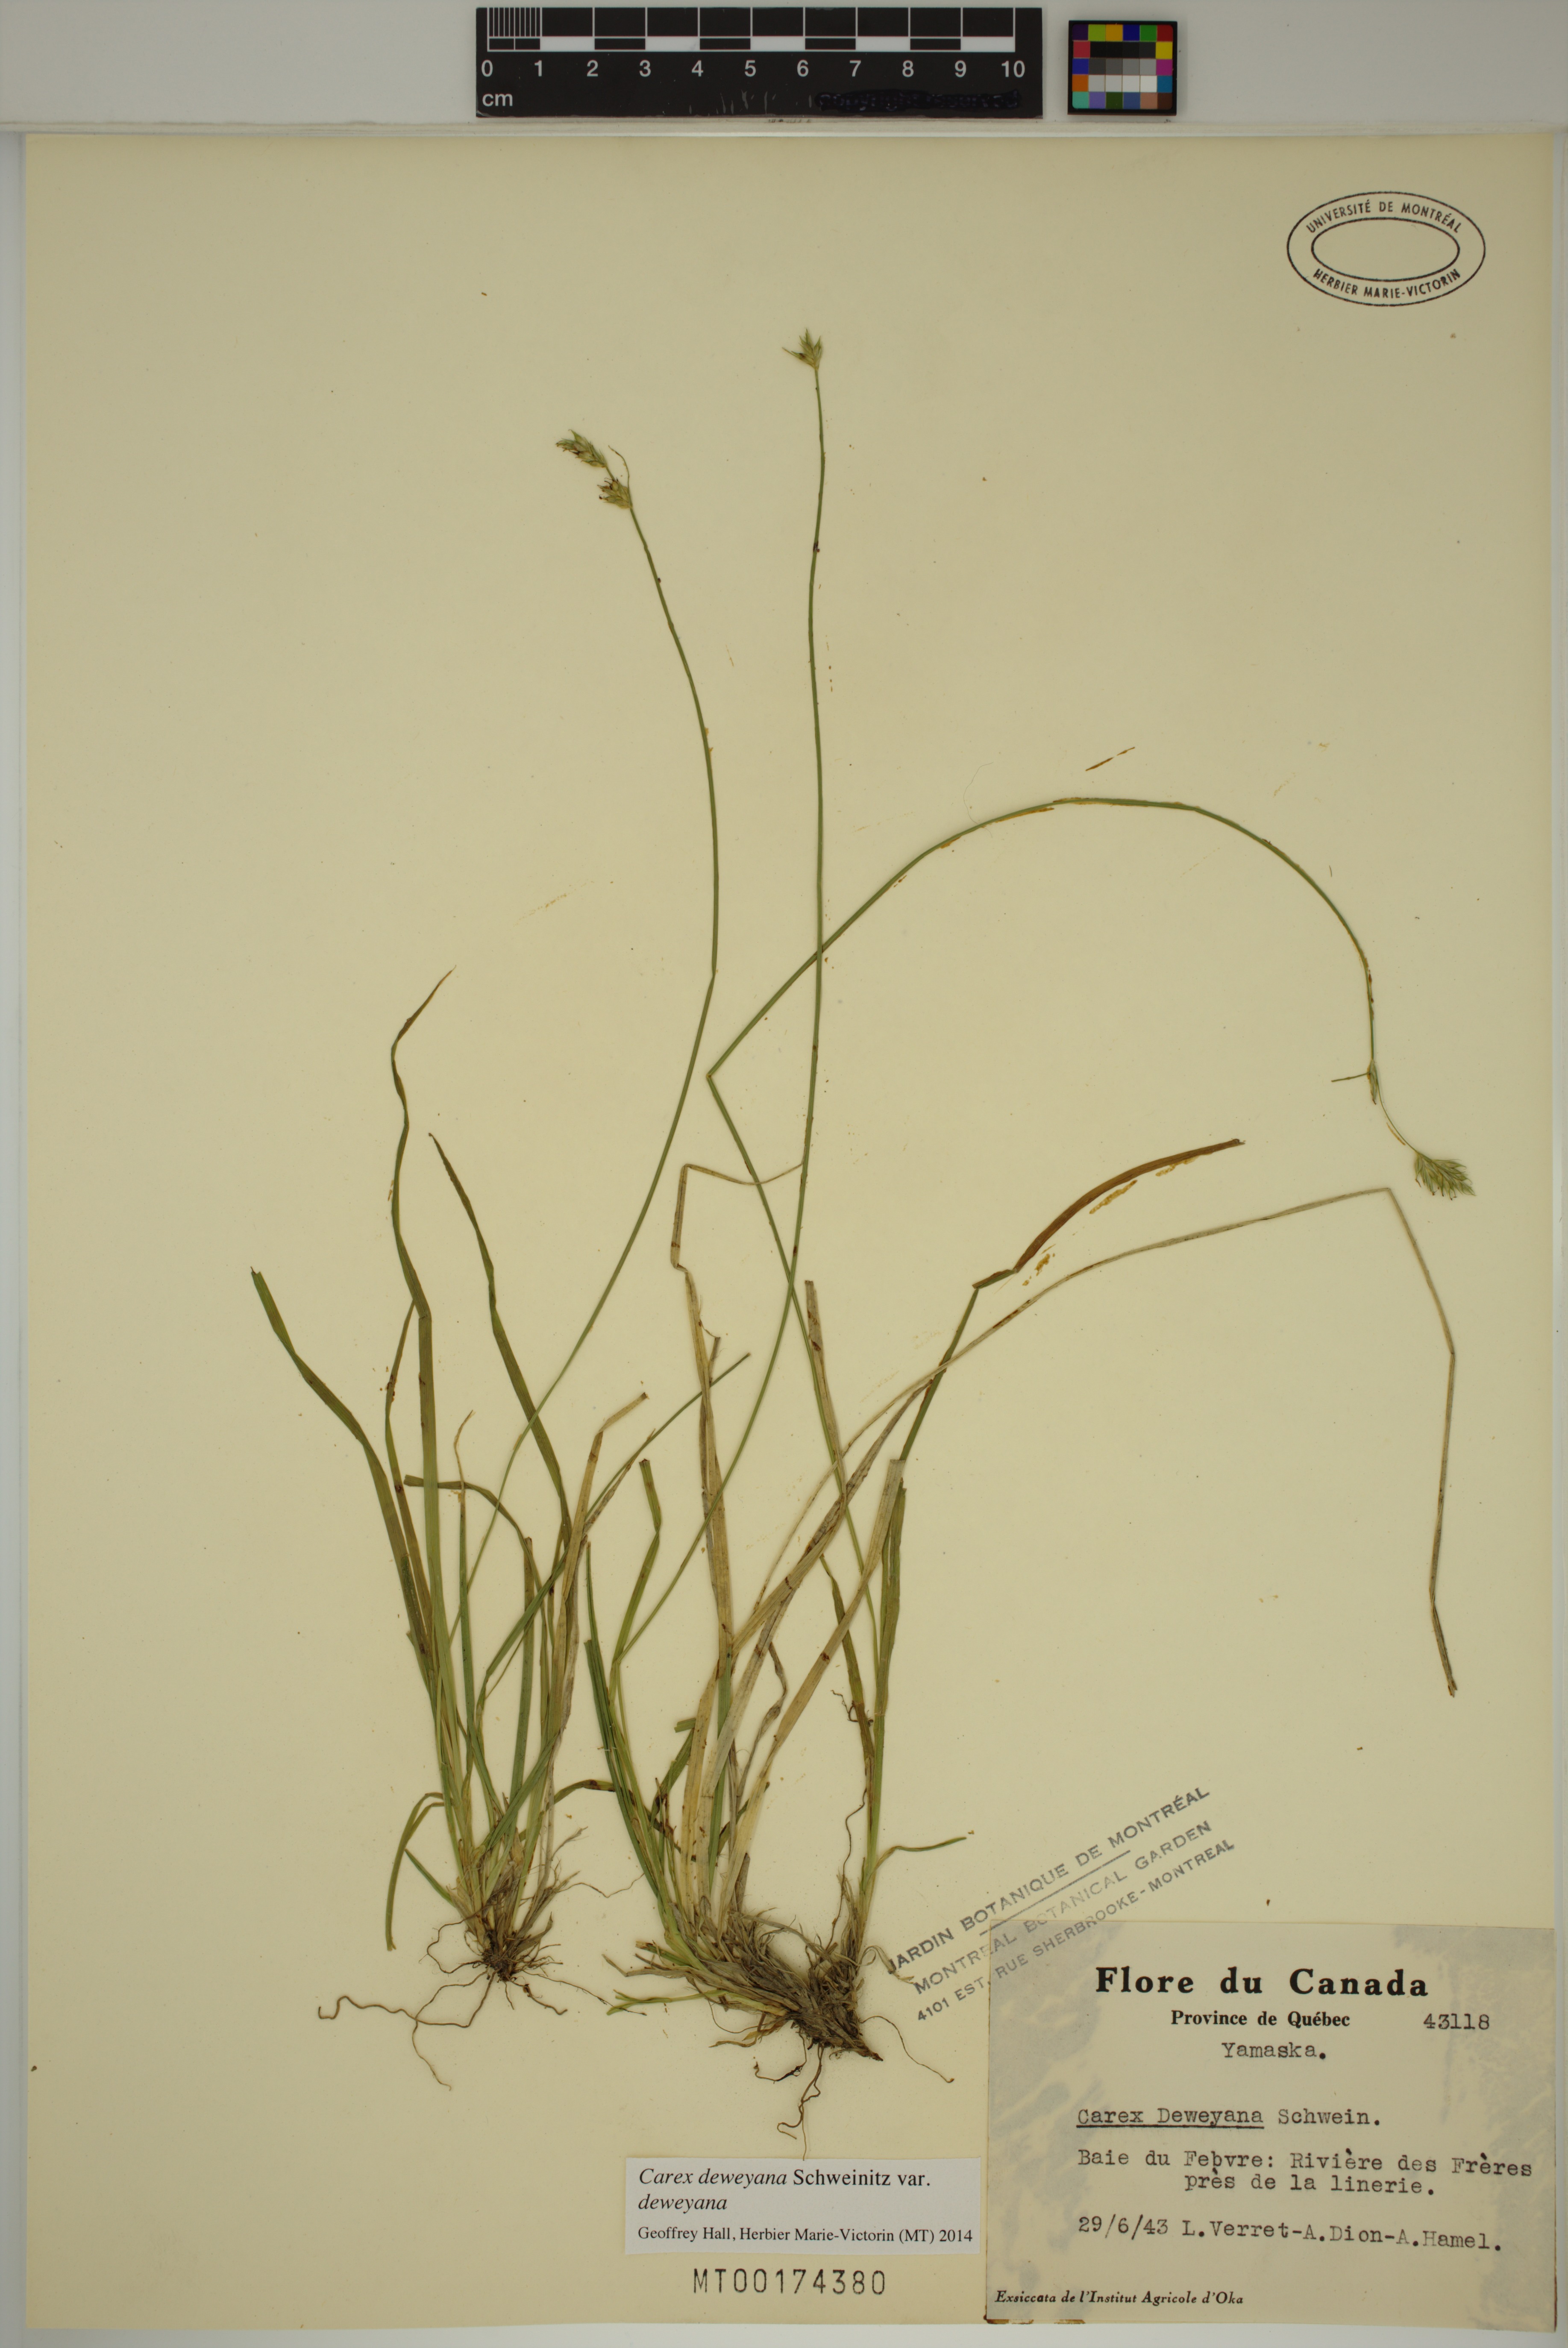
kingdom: Plantae
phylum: Tracheophyta
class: Liliopsida
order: Poales
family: Cyperaceae
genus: Carex
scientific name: Carex deweyana
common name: Dewey's sedge
